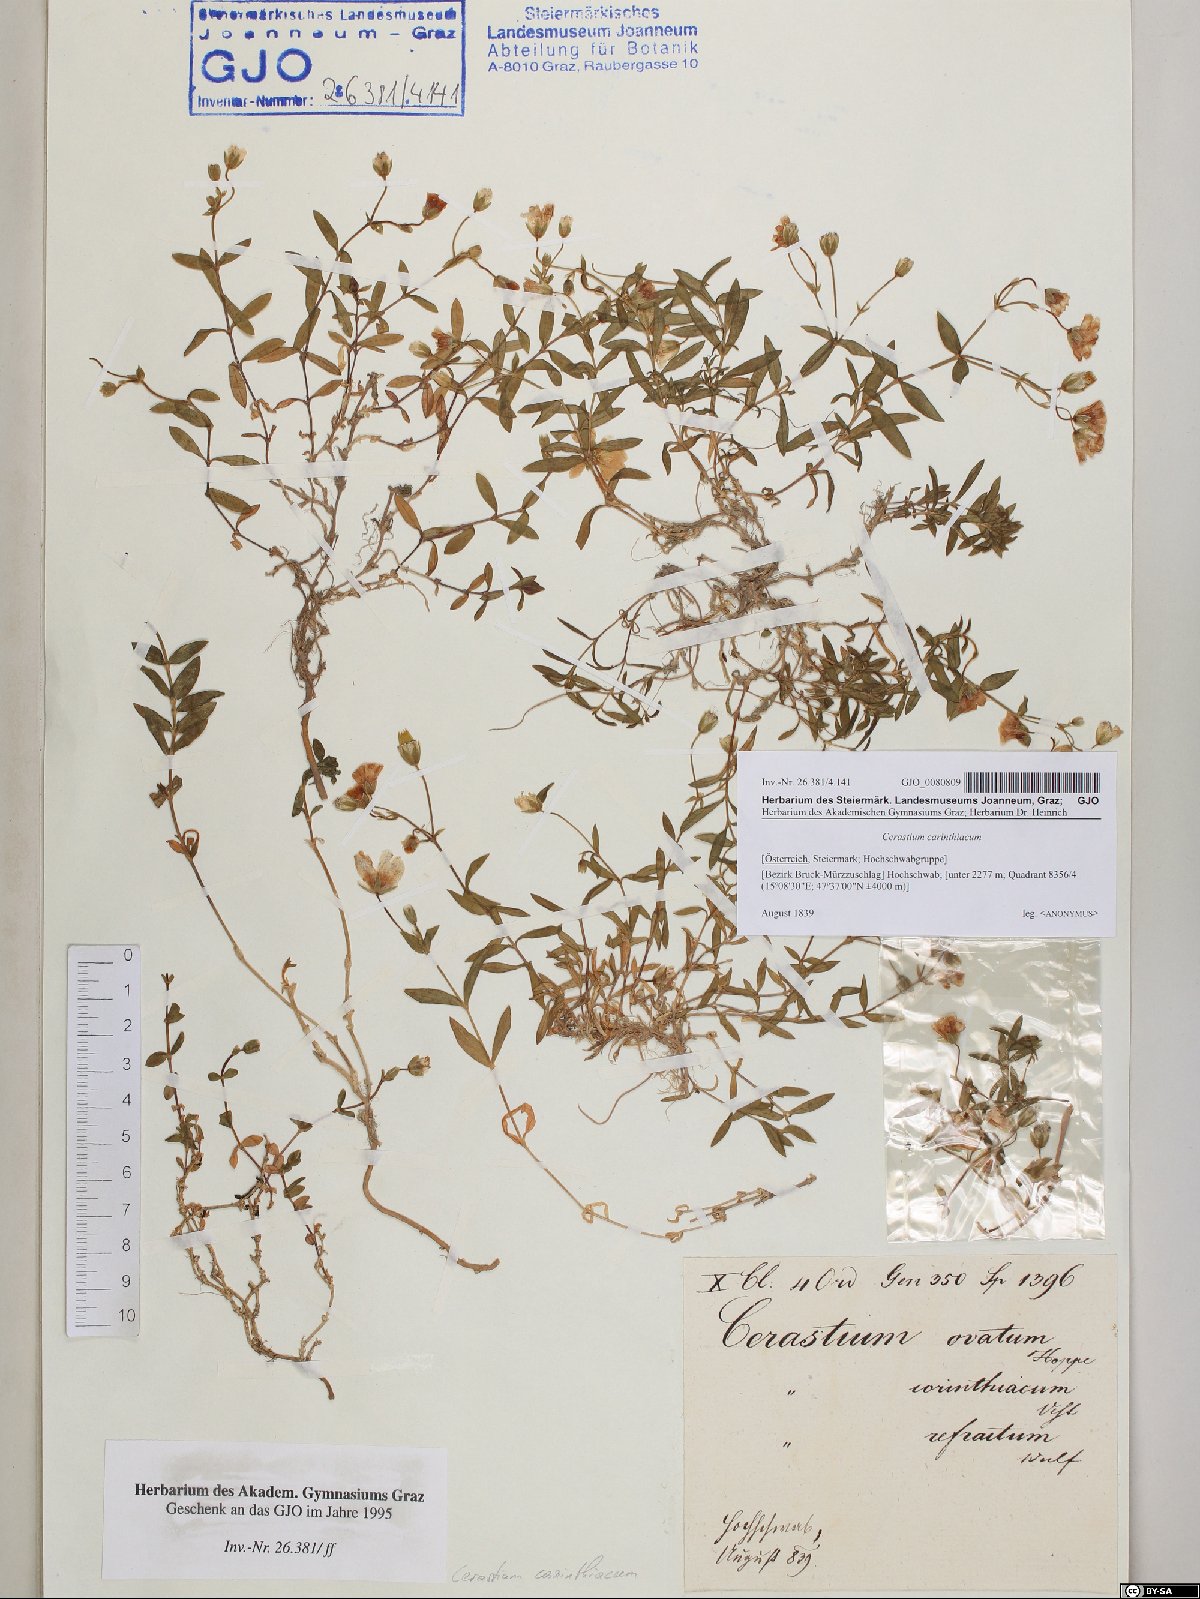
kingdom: Plantae
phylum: Tracheophyta
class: Magnoliopsida
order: Caryophyllales
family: Caryophyllaceae
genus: Cerastium
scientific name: Cerastium carinthiacum
